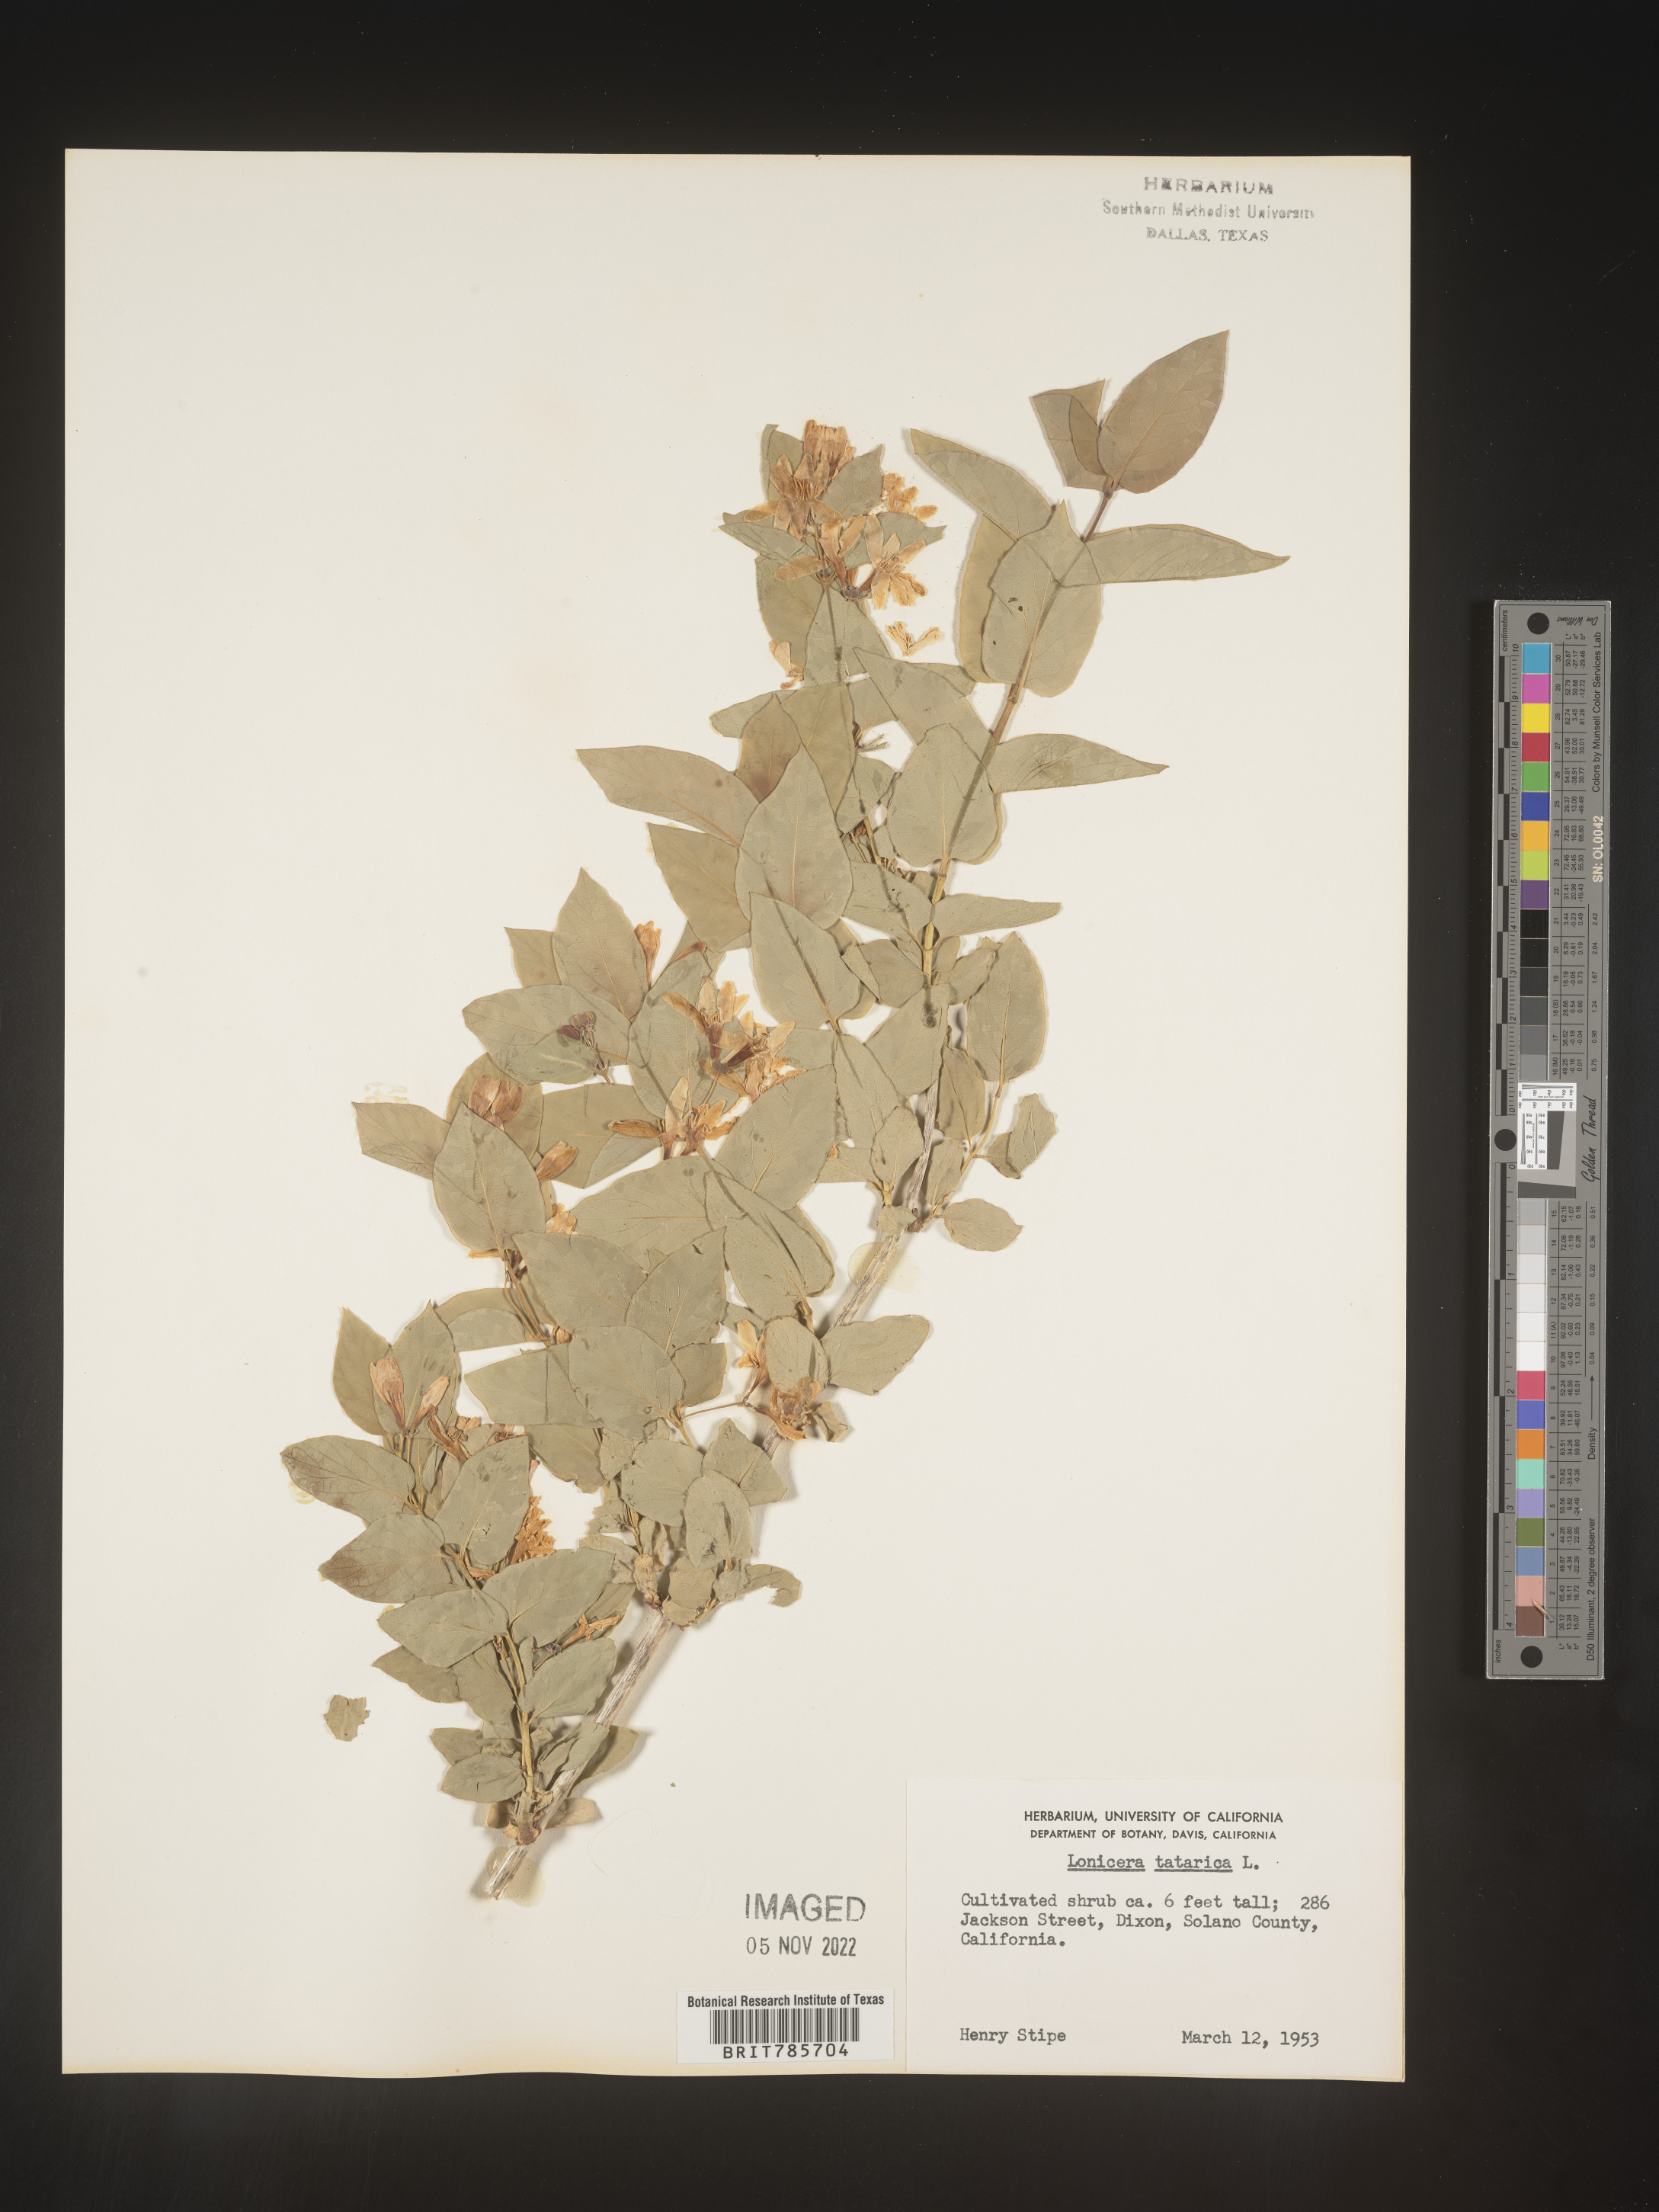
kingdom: Plantae
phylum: Tracheophyta
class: Magnoliopsida
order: Dipsacales
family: Caprifoliaceae
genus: Lonicera
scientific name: Lonicera
